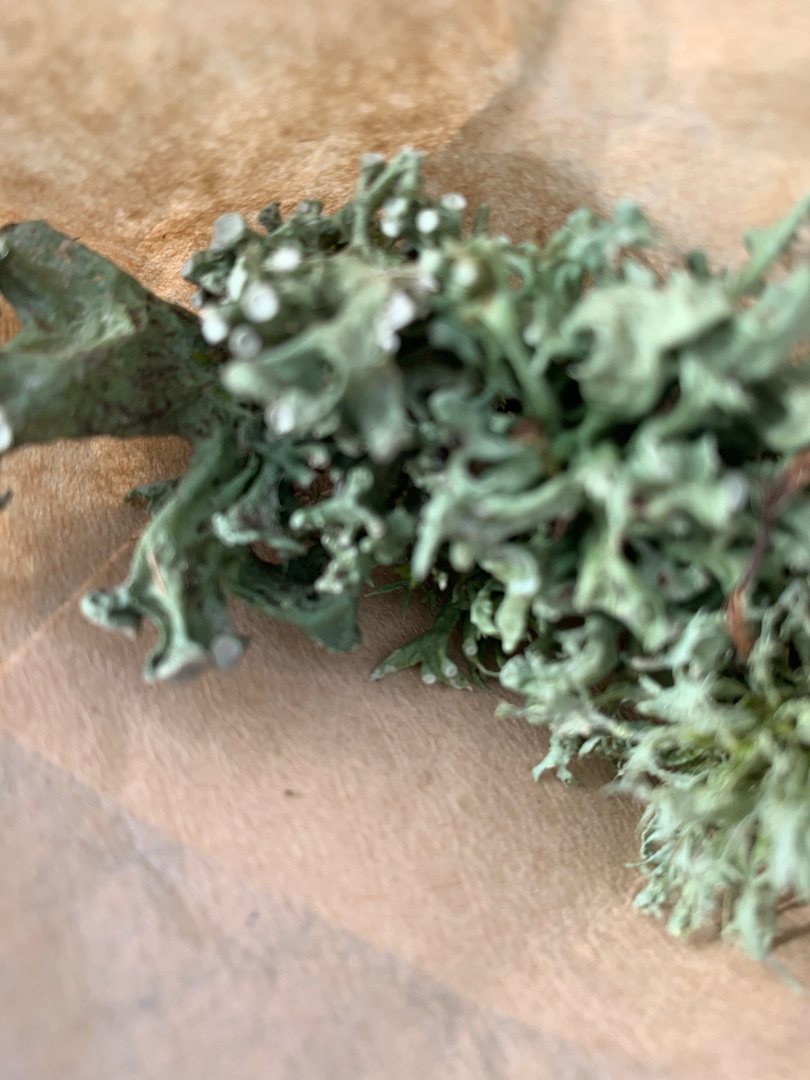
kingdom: Fungi
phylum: Ascomycota
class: Lecanoromycetes
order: Lecanorales
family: Ramalinaceae
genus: Ramalina
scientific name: Ramalina fastigiata
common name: Tue-grenlav
